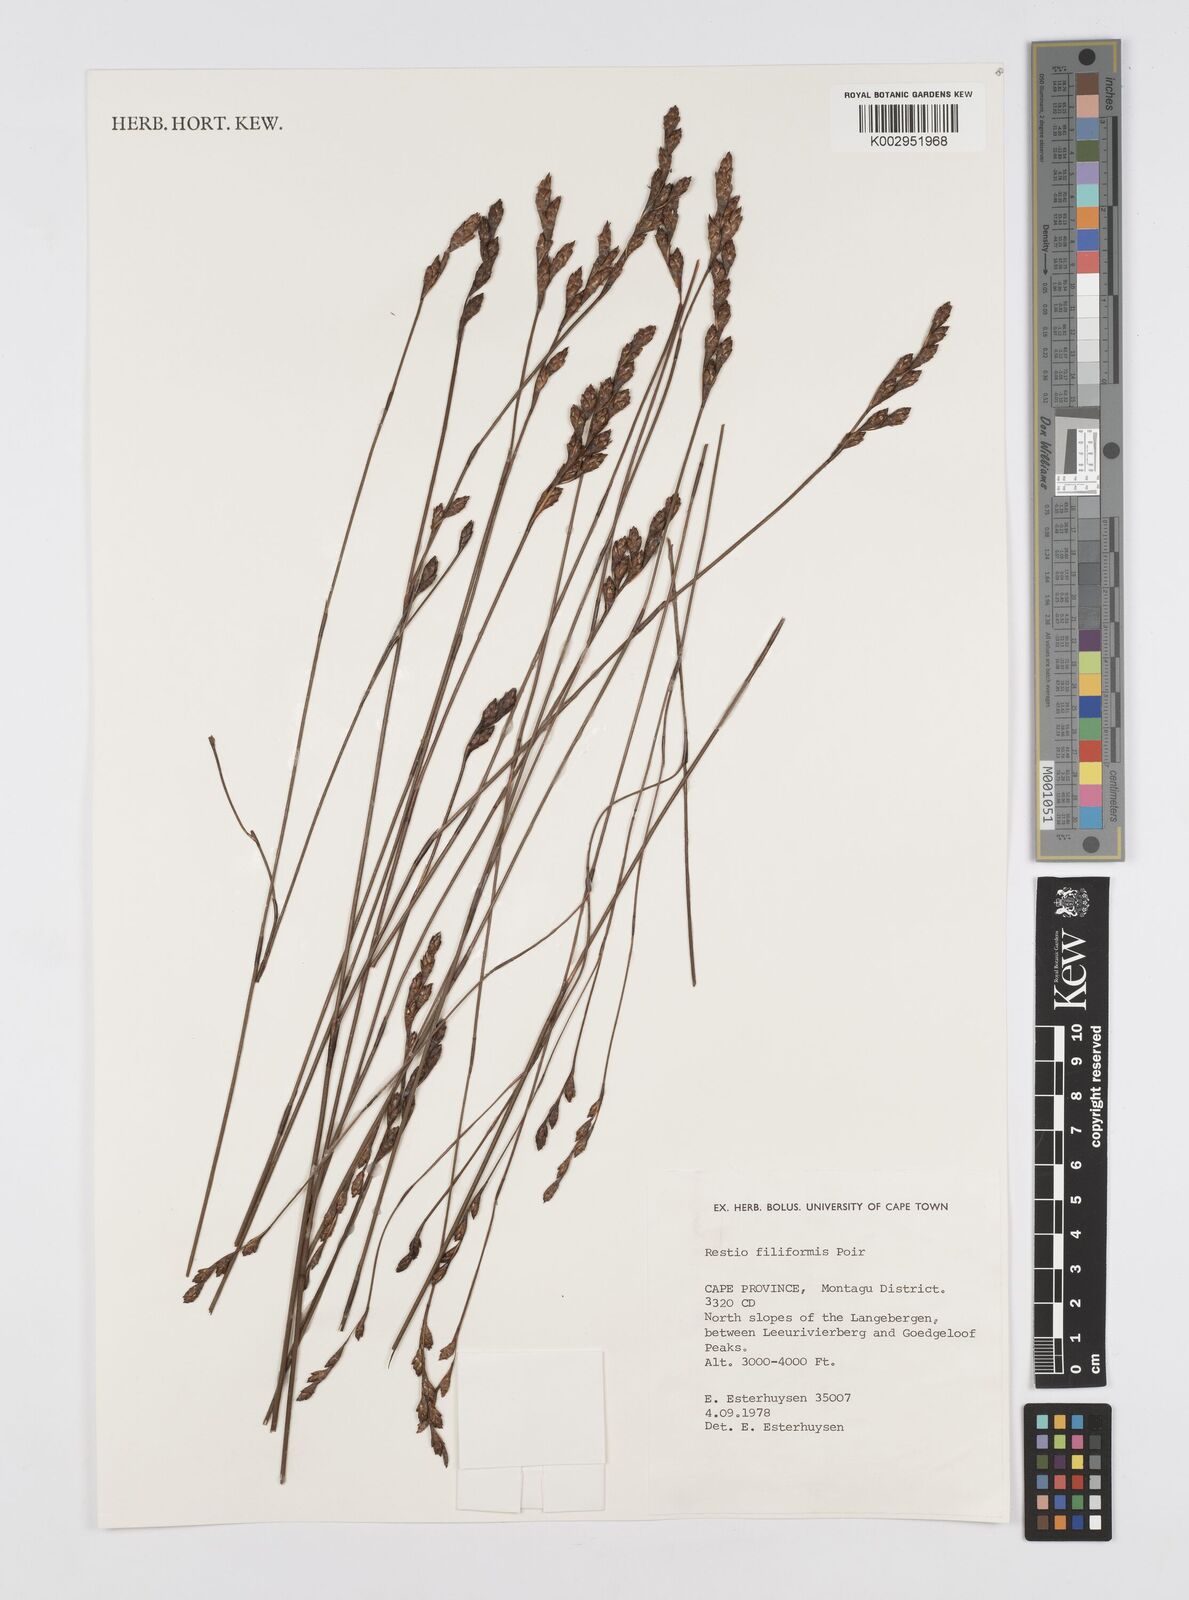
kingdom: Plantae
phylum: Tracheophyta
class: Liliopsida
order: Poales
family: Restionaceae
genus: Restio
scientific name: Restio filiformis
